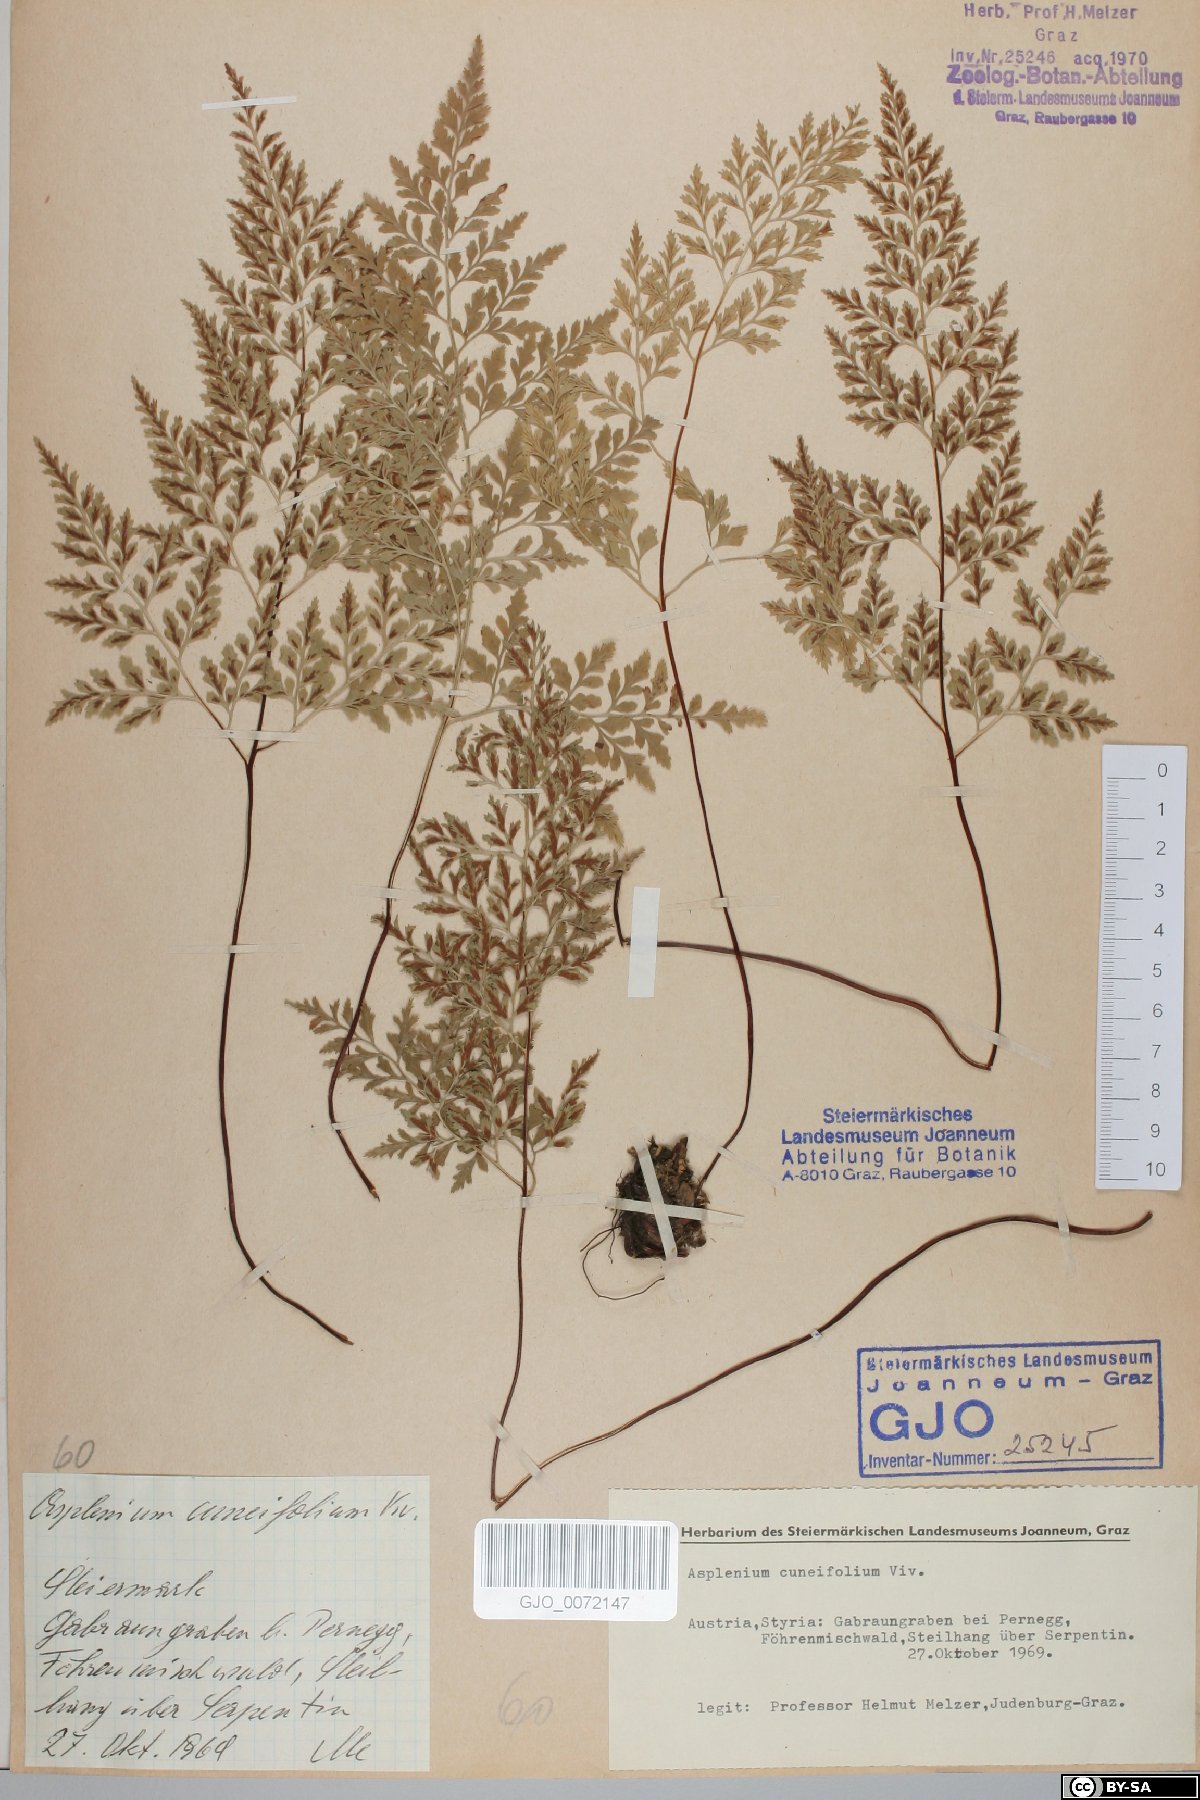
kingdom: Plantae
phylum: Tracheophyta
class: Polypodiopsida
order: Polypodiales
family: Aspleniaceae
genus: Asplenium
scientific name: Asplenium cuneifolium
